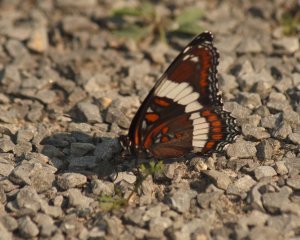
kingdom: Animalia
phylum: Arthropoda
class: Insecta
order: Lepidoptera
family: Nymphalidae
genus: Limenitis
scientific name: Limenitis arthemis
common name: Red-spotted Admiral
